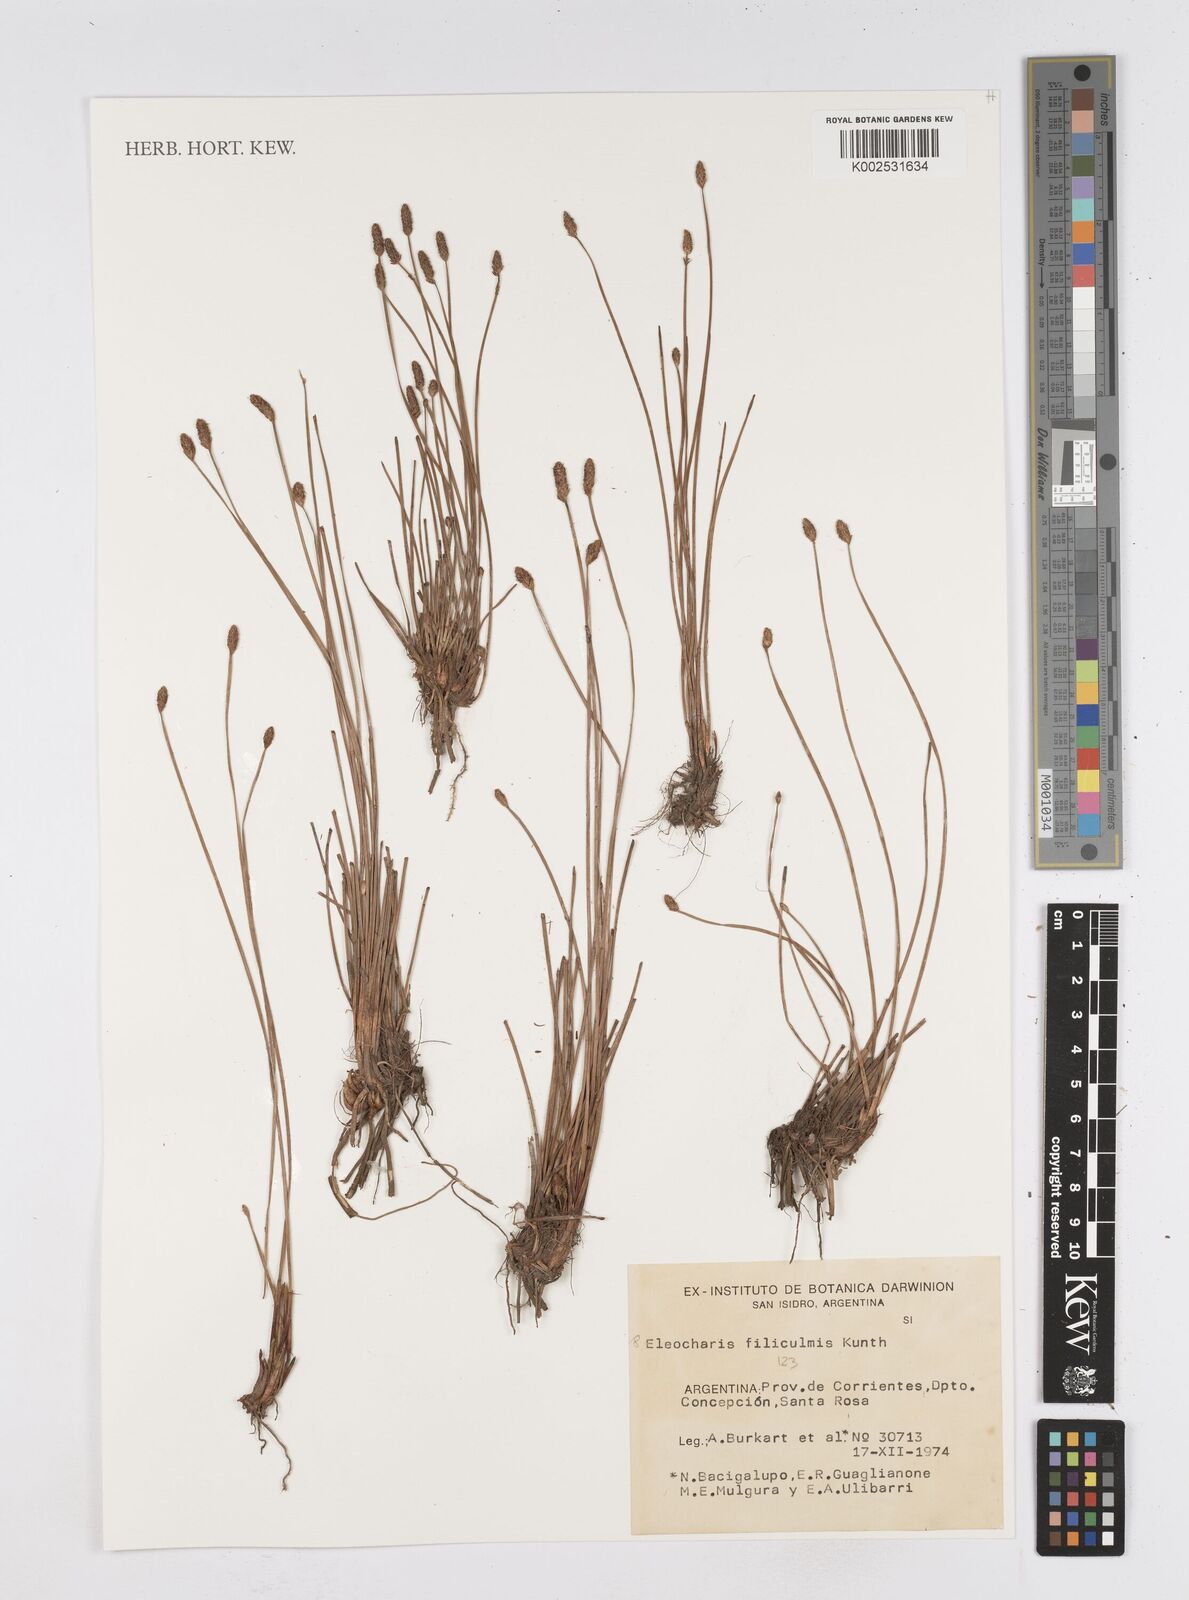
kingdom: Plantae
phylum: Tracheophyta
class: Liliopsida
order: Poales
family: Cyperaceae
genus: Eleocharis
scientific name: Eleocharis filiculmis
